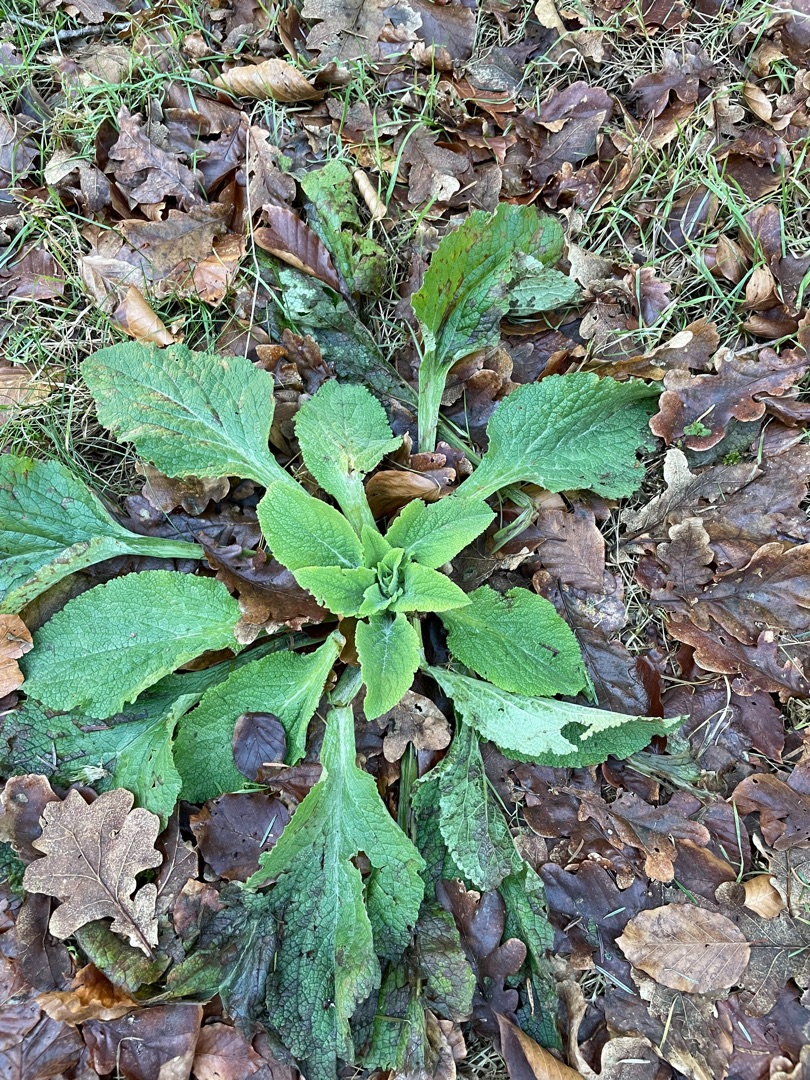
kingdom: Plantae
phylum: Tracheophyta
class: Magnoliopsida
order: Lamiales
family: Plantaginaceae
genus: Digitalis
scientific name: Digitalis purpurea
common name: Almindelig fingerbøl
